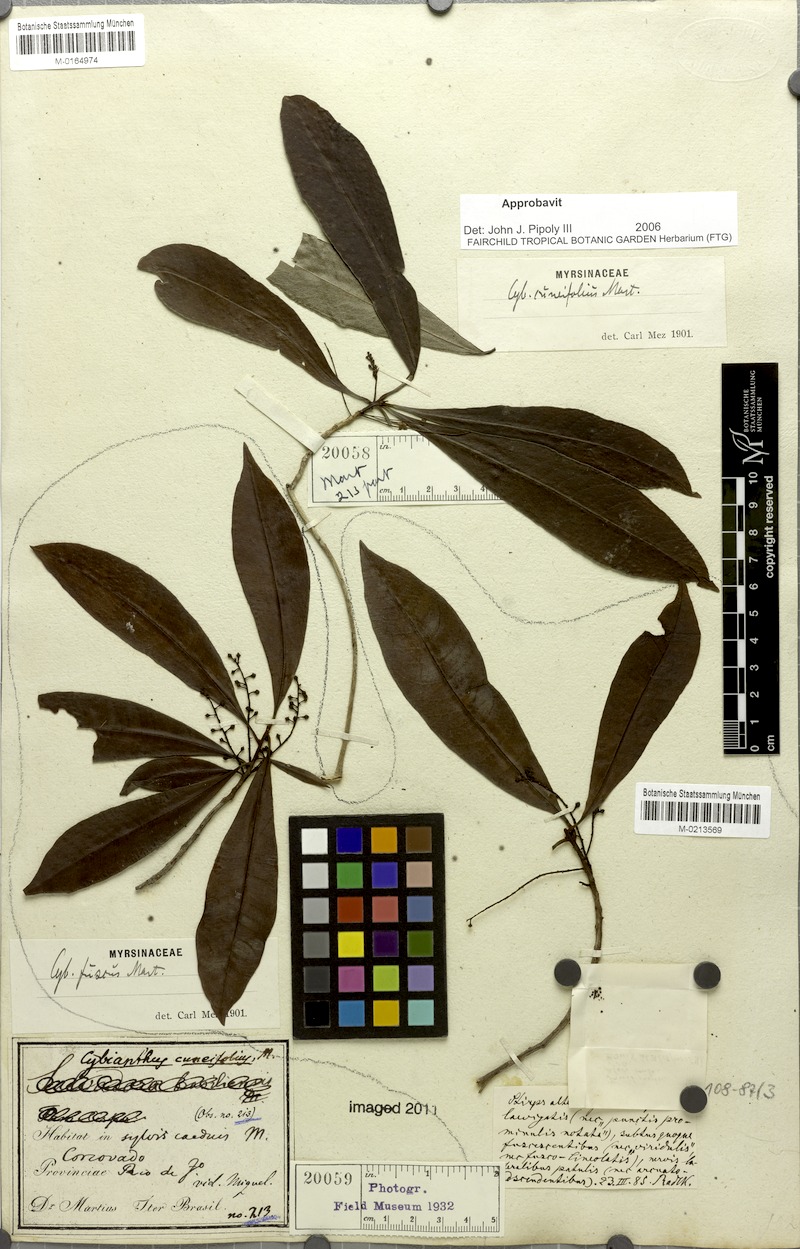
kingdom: Plantae
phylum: Tracheophyta
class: Magnoliopsida
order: Ericales
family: Primulaceae
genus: Cybianthus
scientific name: Cybianthus pastensis
